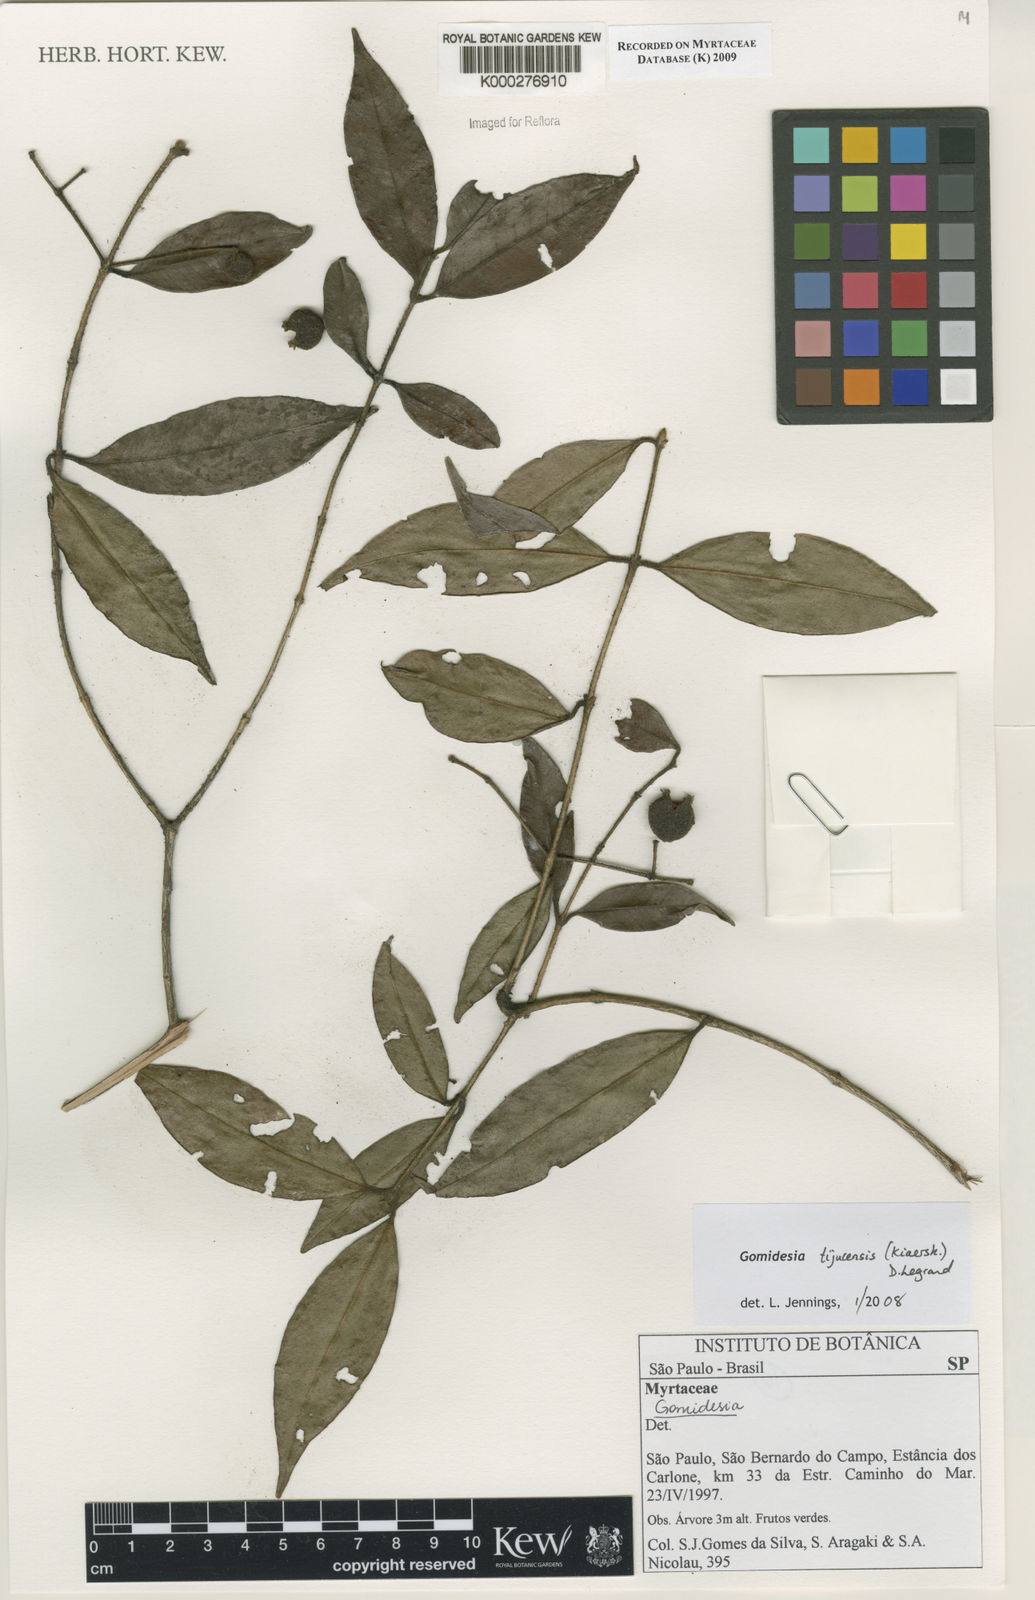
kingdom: Plantae
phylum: Tracheophyta
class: Magnoliopsida
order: Myrtales
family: Myrtaceae
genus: Myrcia
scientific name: Myrcia tijucensis
